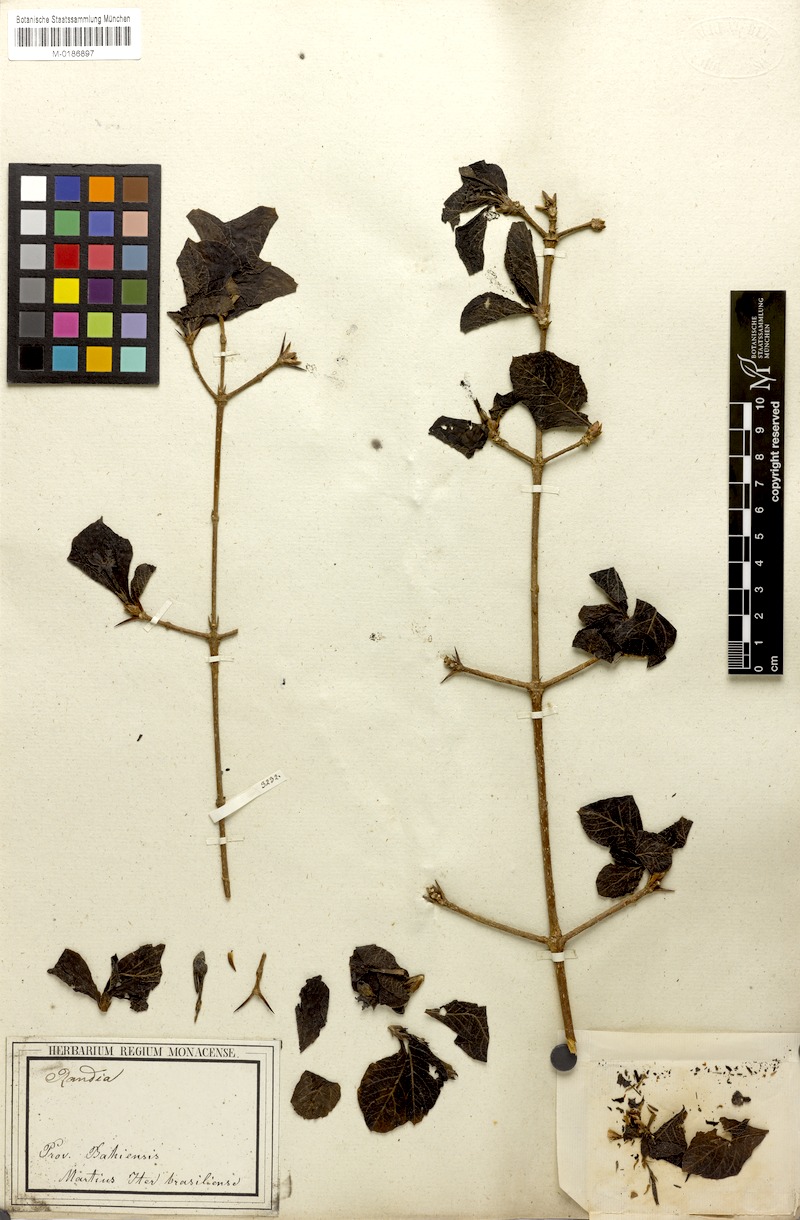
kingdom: Plantae
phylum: Tracheophyta
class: Magnoliopsida
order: Gentianales
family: Rubiaceae
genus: Randia
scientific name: Randia armata
